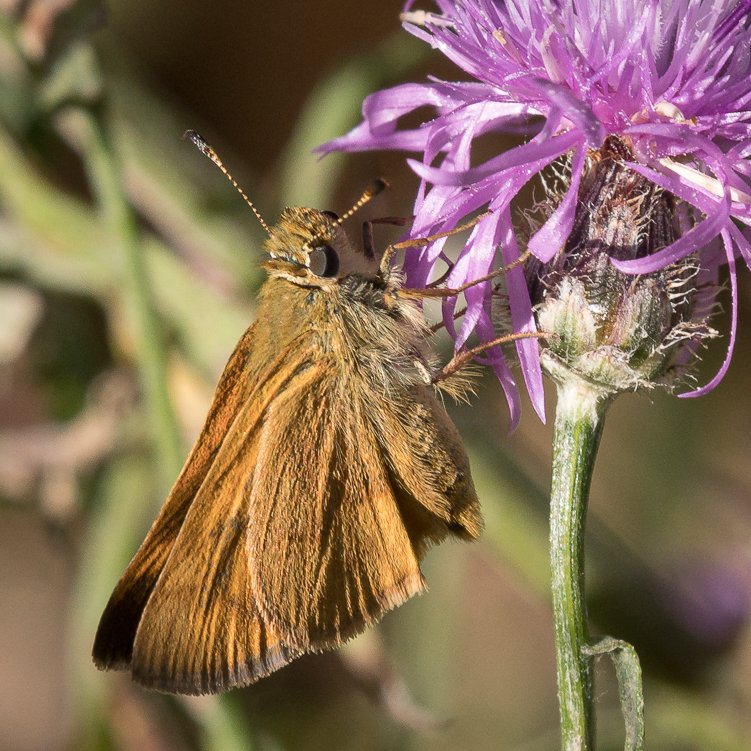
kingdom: Animalia
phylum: Arthropoda
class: Insecta
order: Lepidoptera
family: Hesperiidae
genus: Ochlodes
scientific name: Ochlodes sylvanoides
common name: Woodland Skipper
